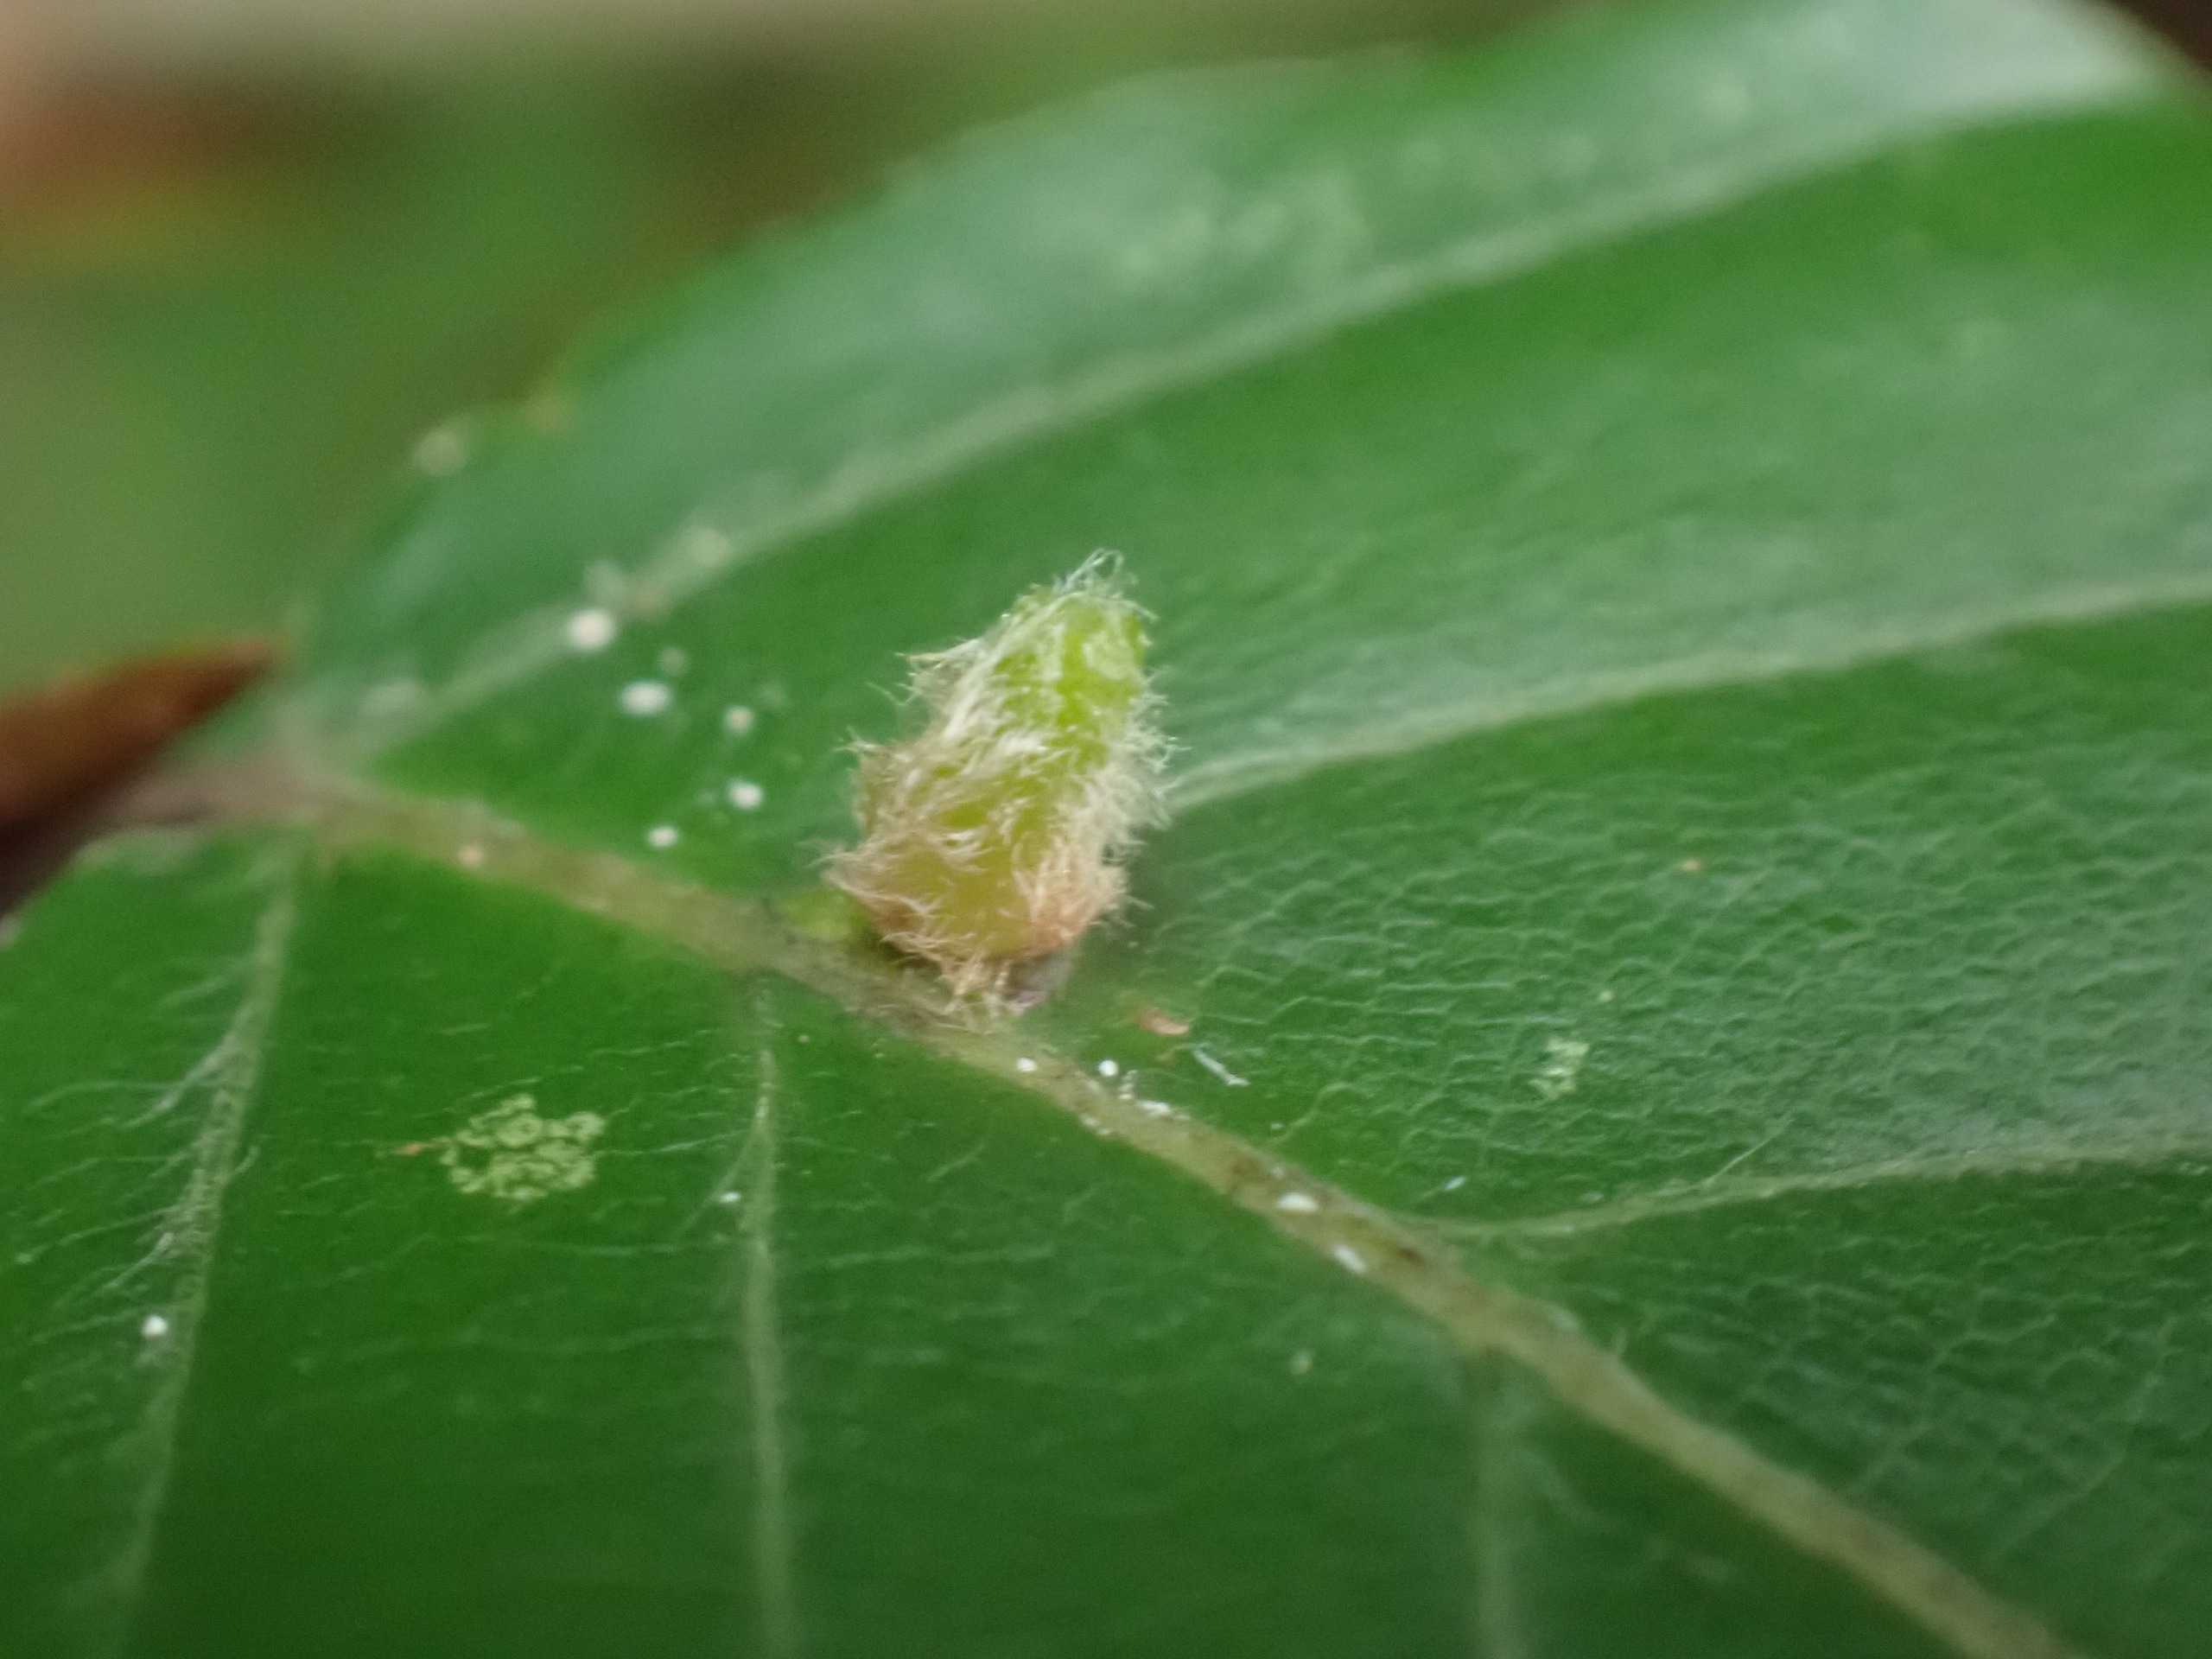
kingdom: Animalia
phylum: Arthropoda
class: Insecta
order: Diptera
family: Cecidomyiidae
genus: Hartigiola
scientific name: Hartigiola annulipes
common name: Skovtroldegalmyg
